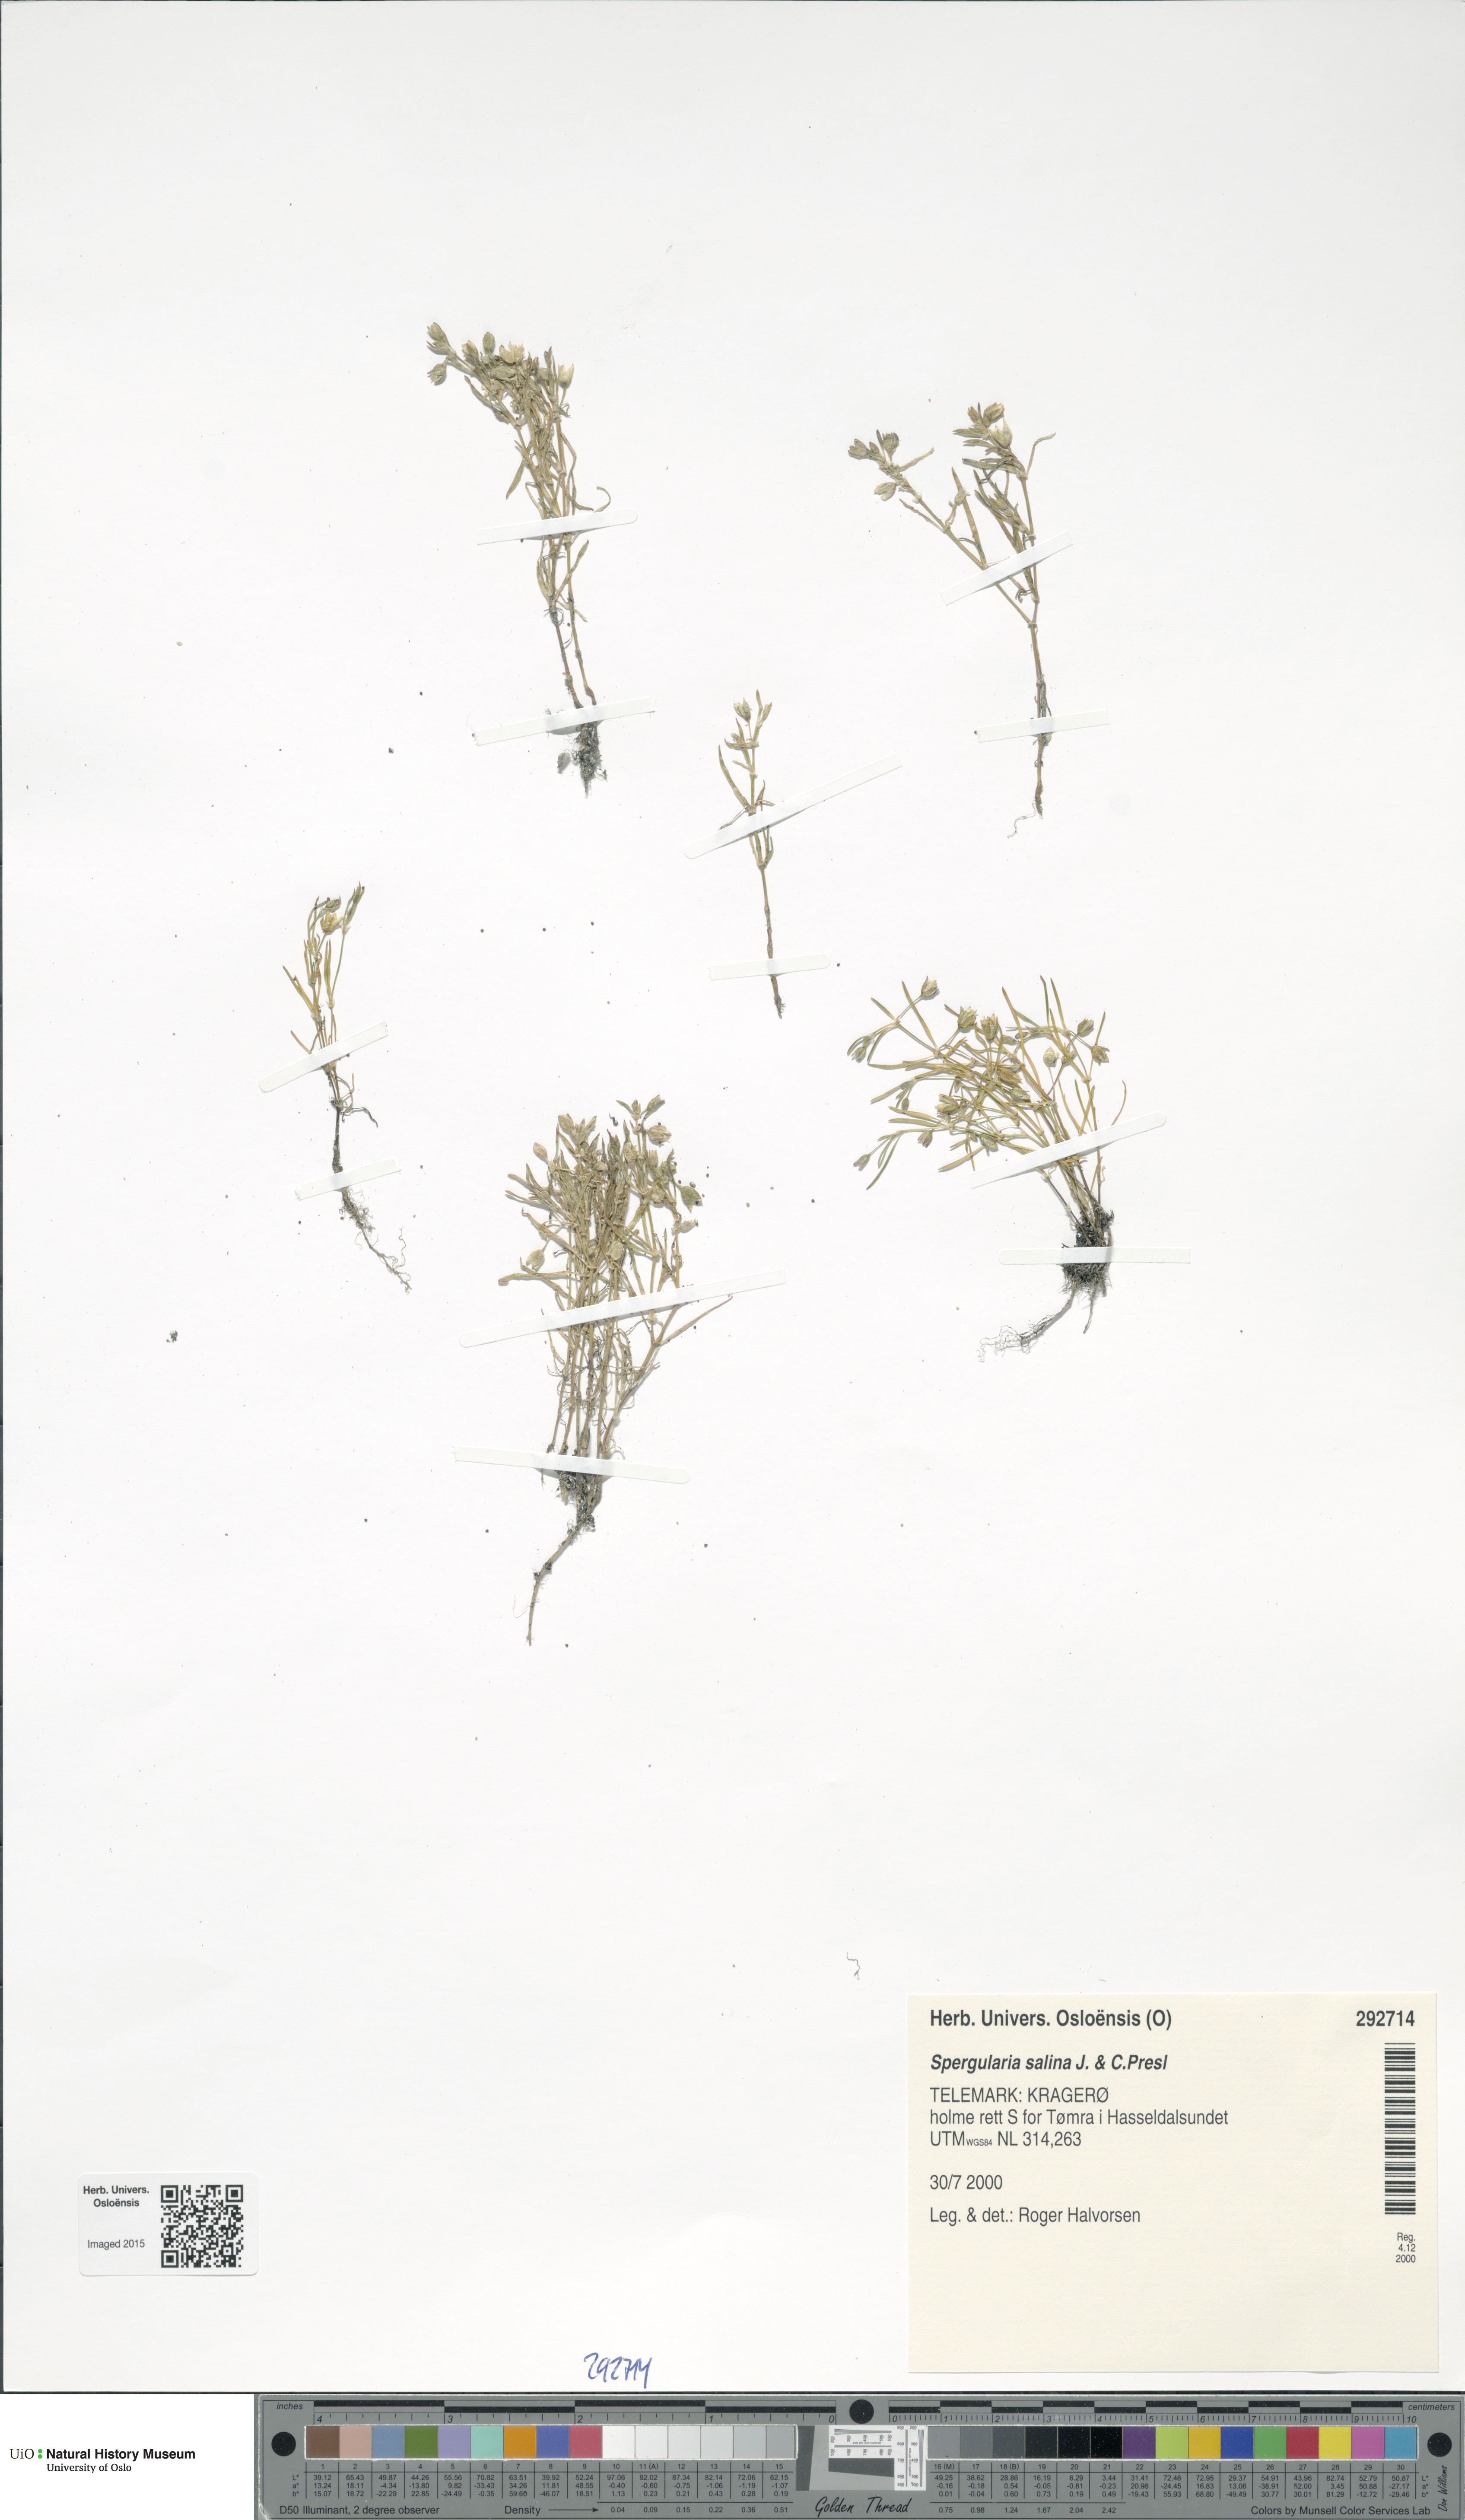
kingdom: Plantae
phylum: Tracheophyta
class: Magnoliopsida
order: Caryophyllales
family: Caryophyllaceae
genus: Spergularia
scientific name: Spergularia marina
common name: Lesser sea-spurrey
